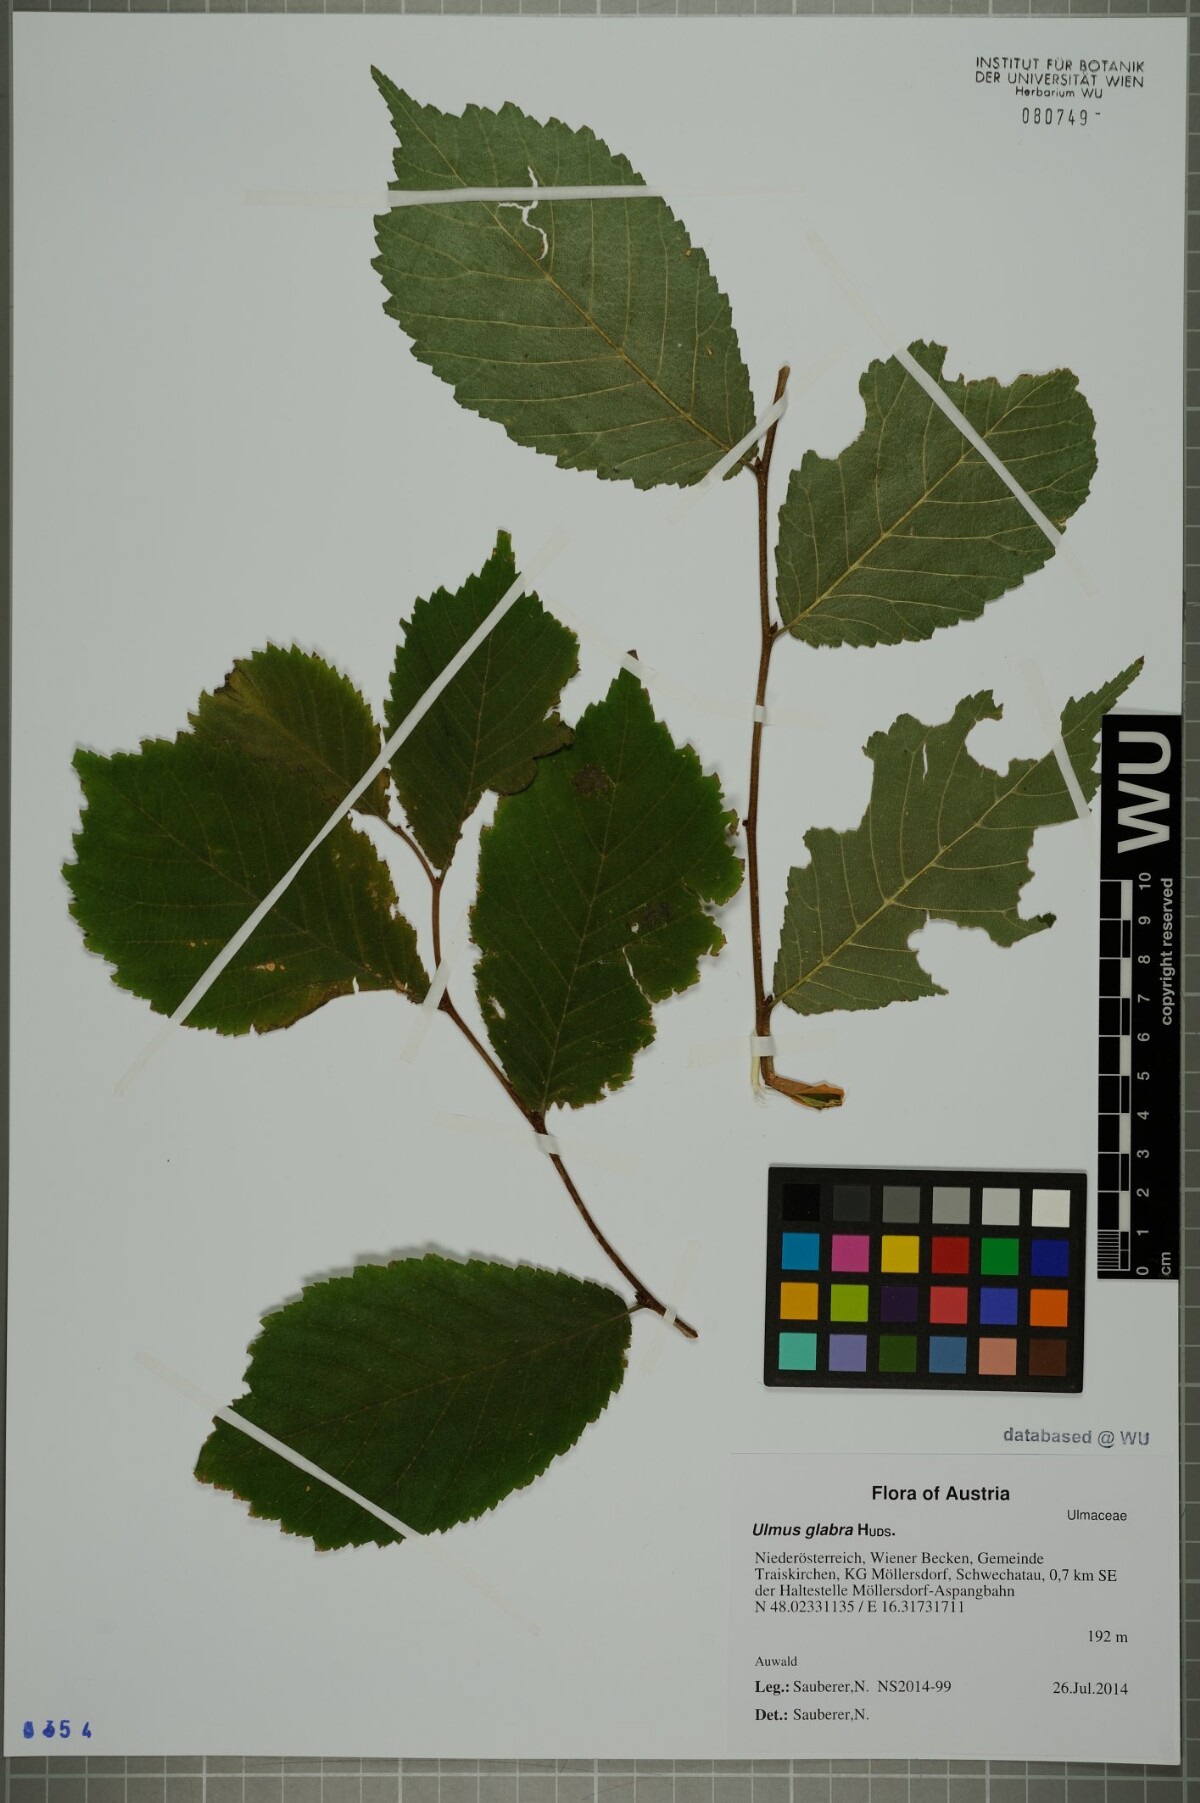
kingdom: Plantae
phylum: Tracheophyta
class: Magnoliopsida
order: Rosales
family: Ulmaceae
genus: Ulmus
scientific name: Ulmus glabra
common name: Wych elm
